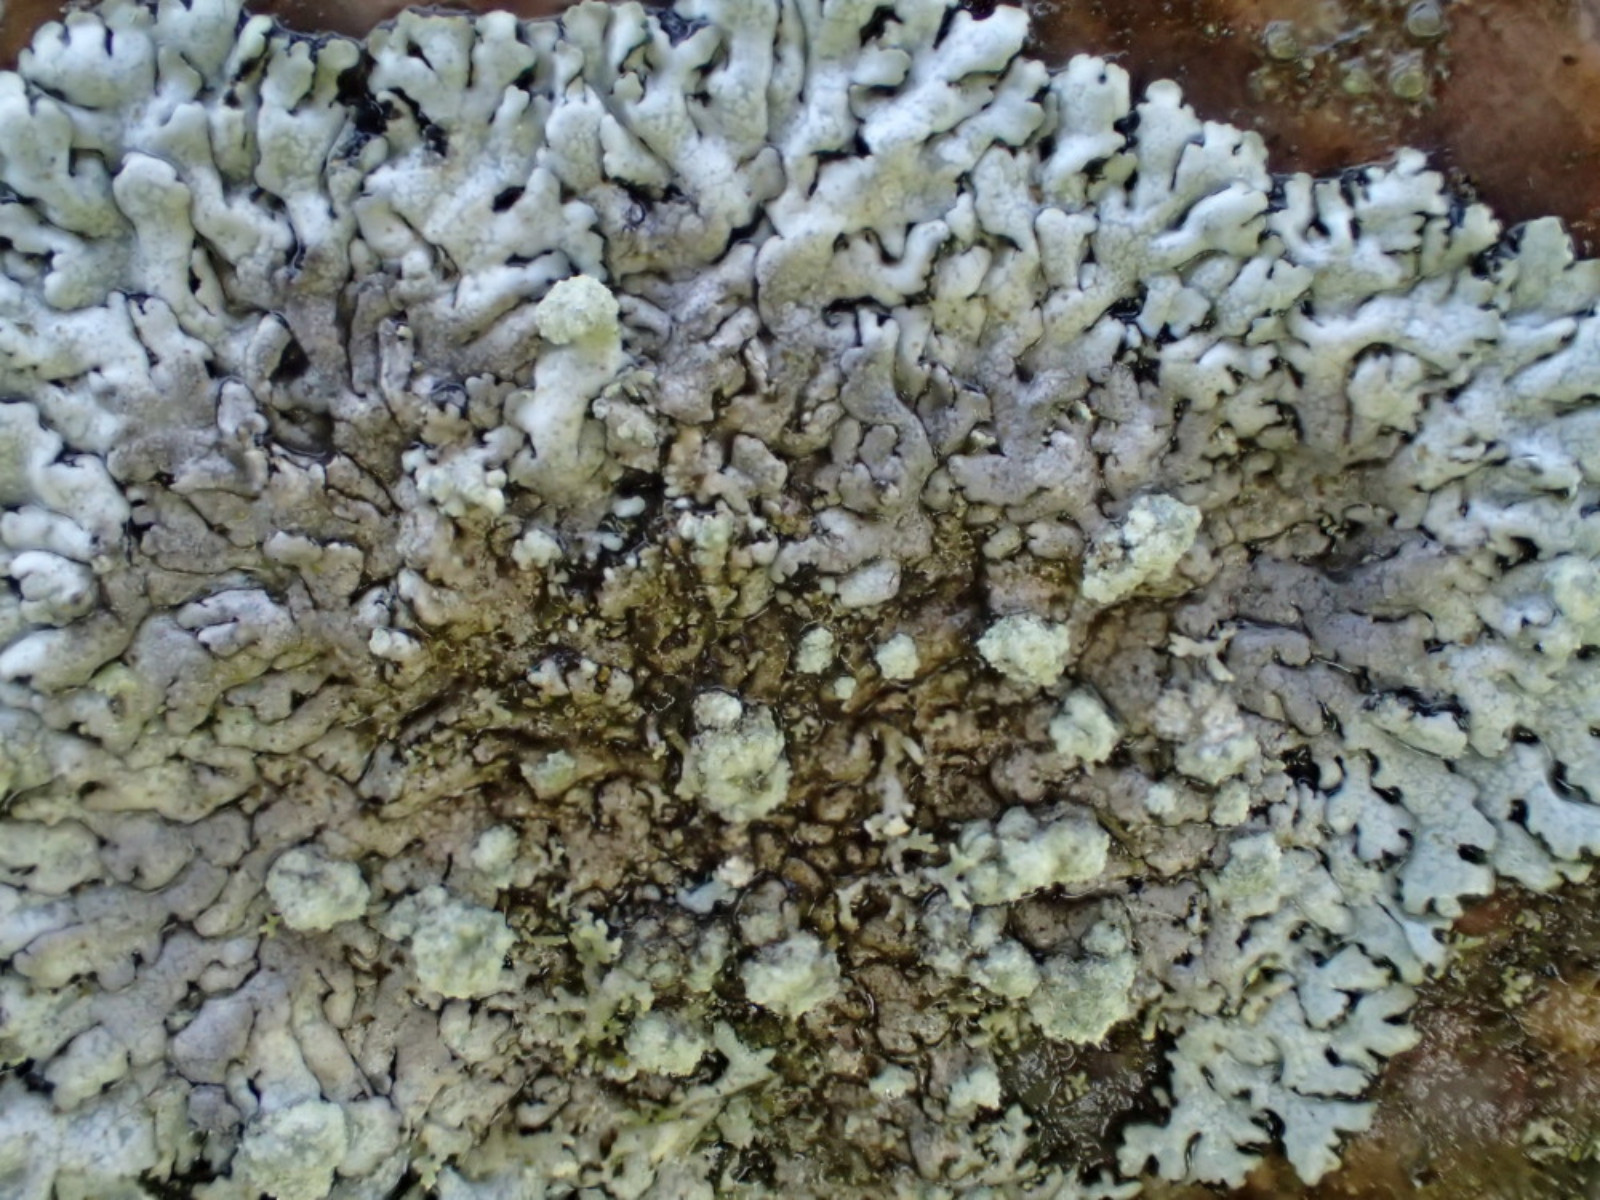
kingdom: Fungi
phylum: Ascomycota
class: Lecanoromycetes
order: Caliciales
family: Physciaceae
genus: Physcia
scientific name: Physcia caesia
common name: blågrå rosetlav
